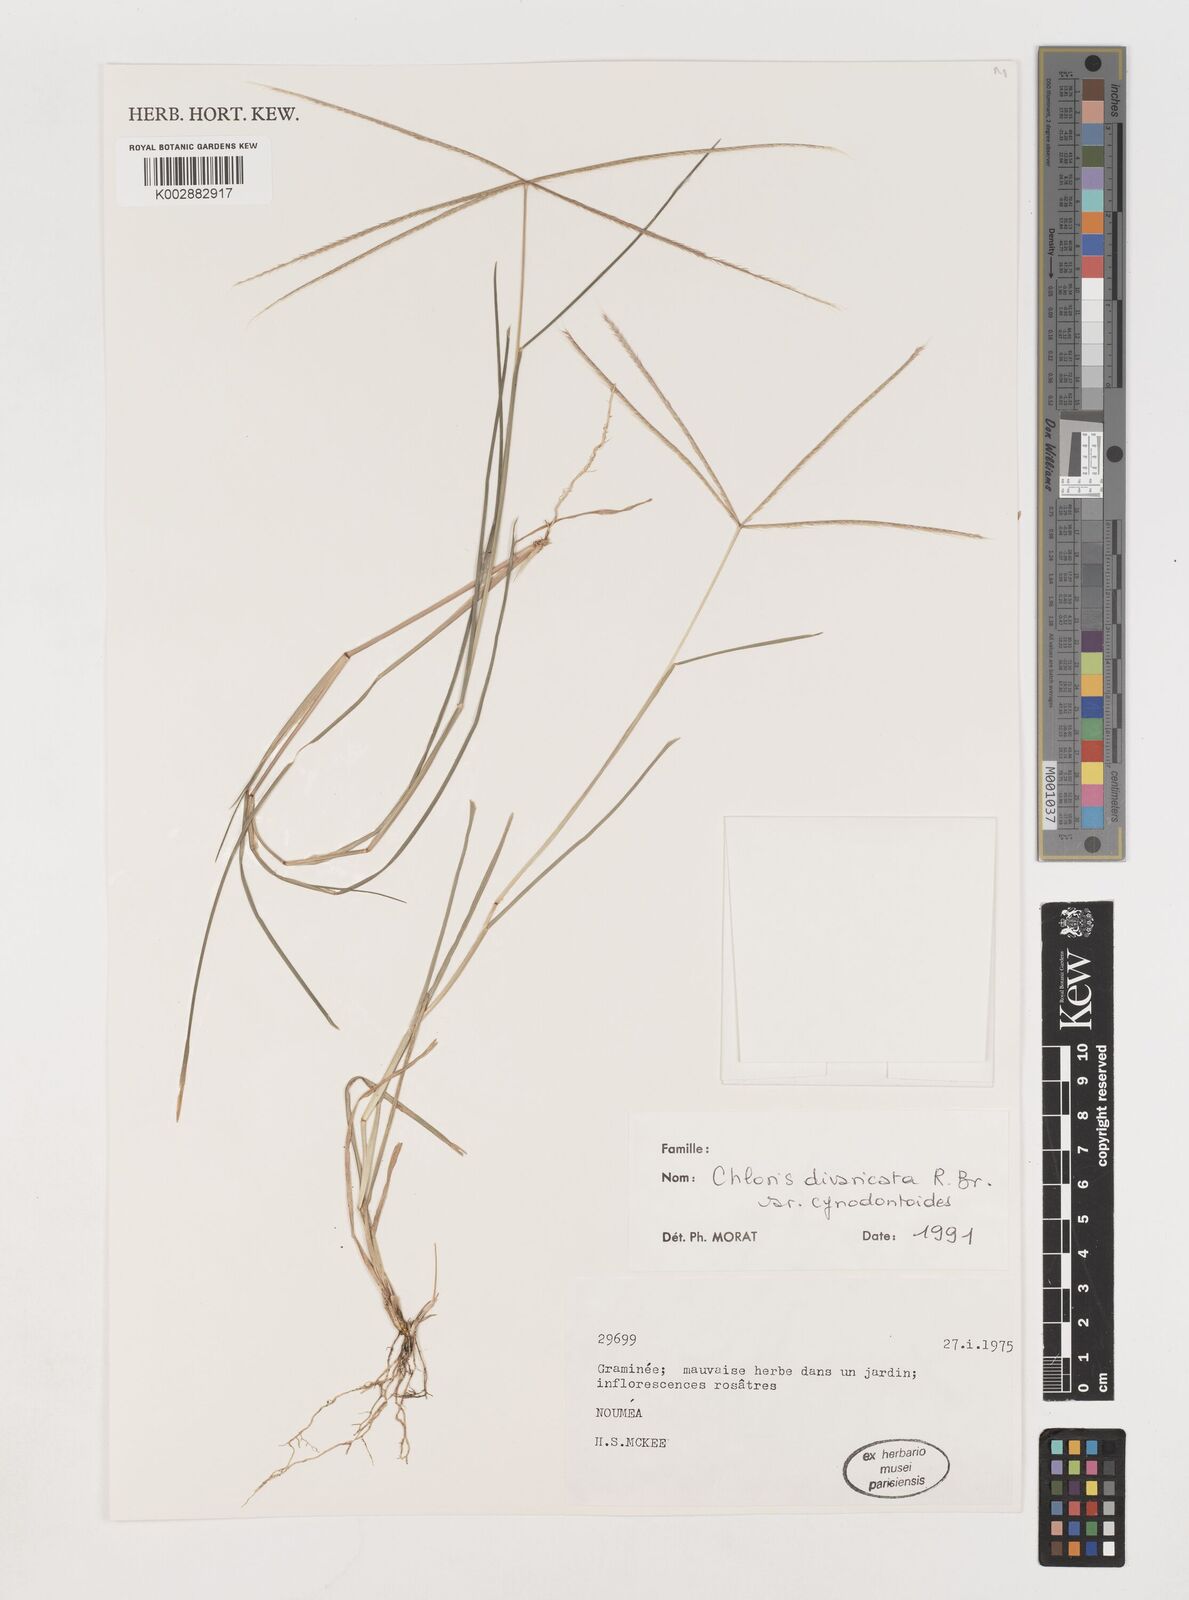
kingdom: Plantae
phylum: Tracheophyta
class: Liliopsida
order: Poales
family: Poaceae
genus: Chloris
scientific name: Chloris divaricata
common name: Spreading windmill grass
